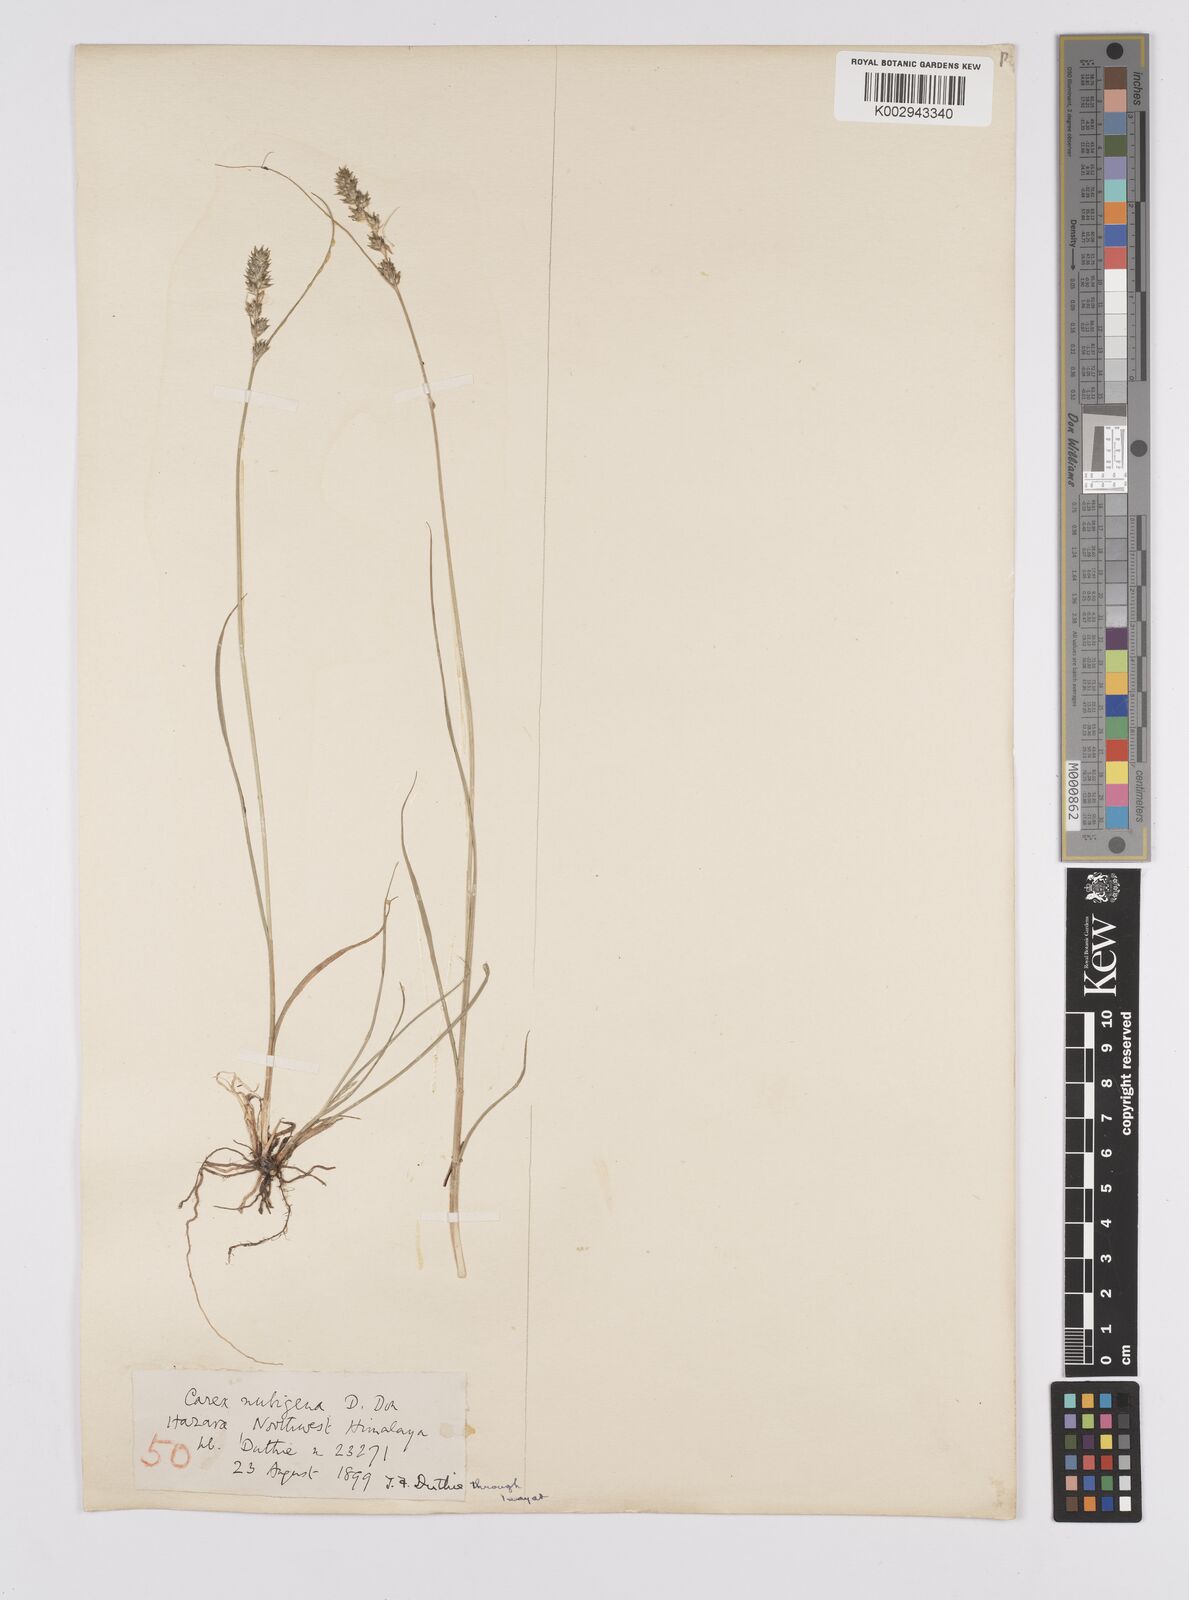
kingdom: Plantae
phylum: Tracheophyta
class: Liliopsida
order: Poales
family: Cyperaceae
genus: Carex
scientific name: Carex nubigena
